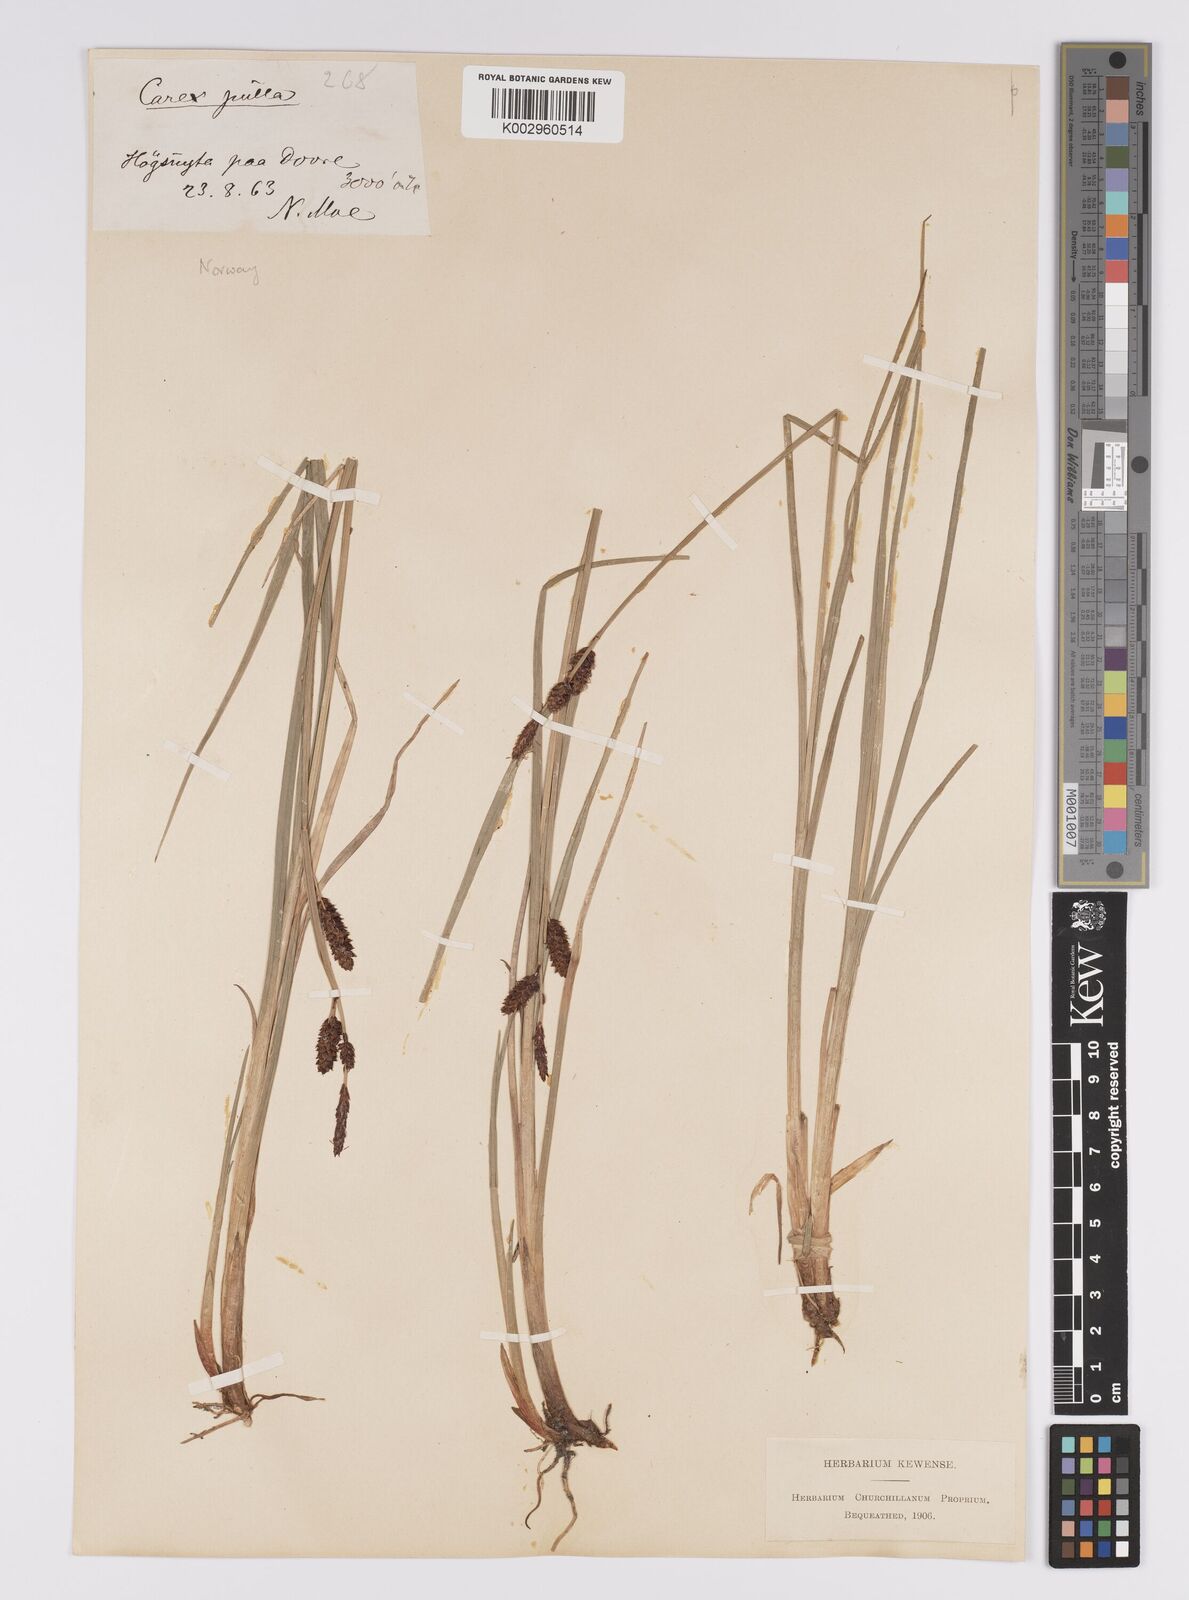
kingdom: Plantae
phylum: Tracheophyta
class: Liliopsida
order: Poales
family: Cyperaceae
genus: Carex
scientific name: Carex saxatilis
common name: Russet sedge
